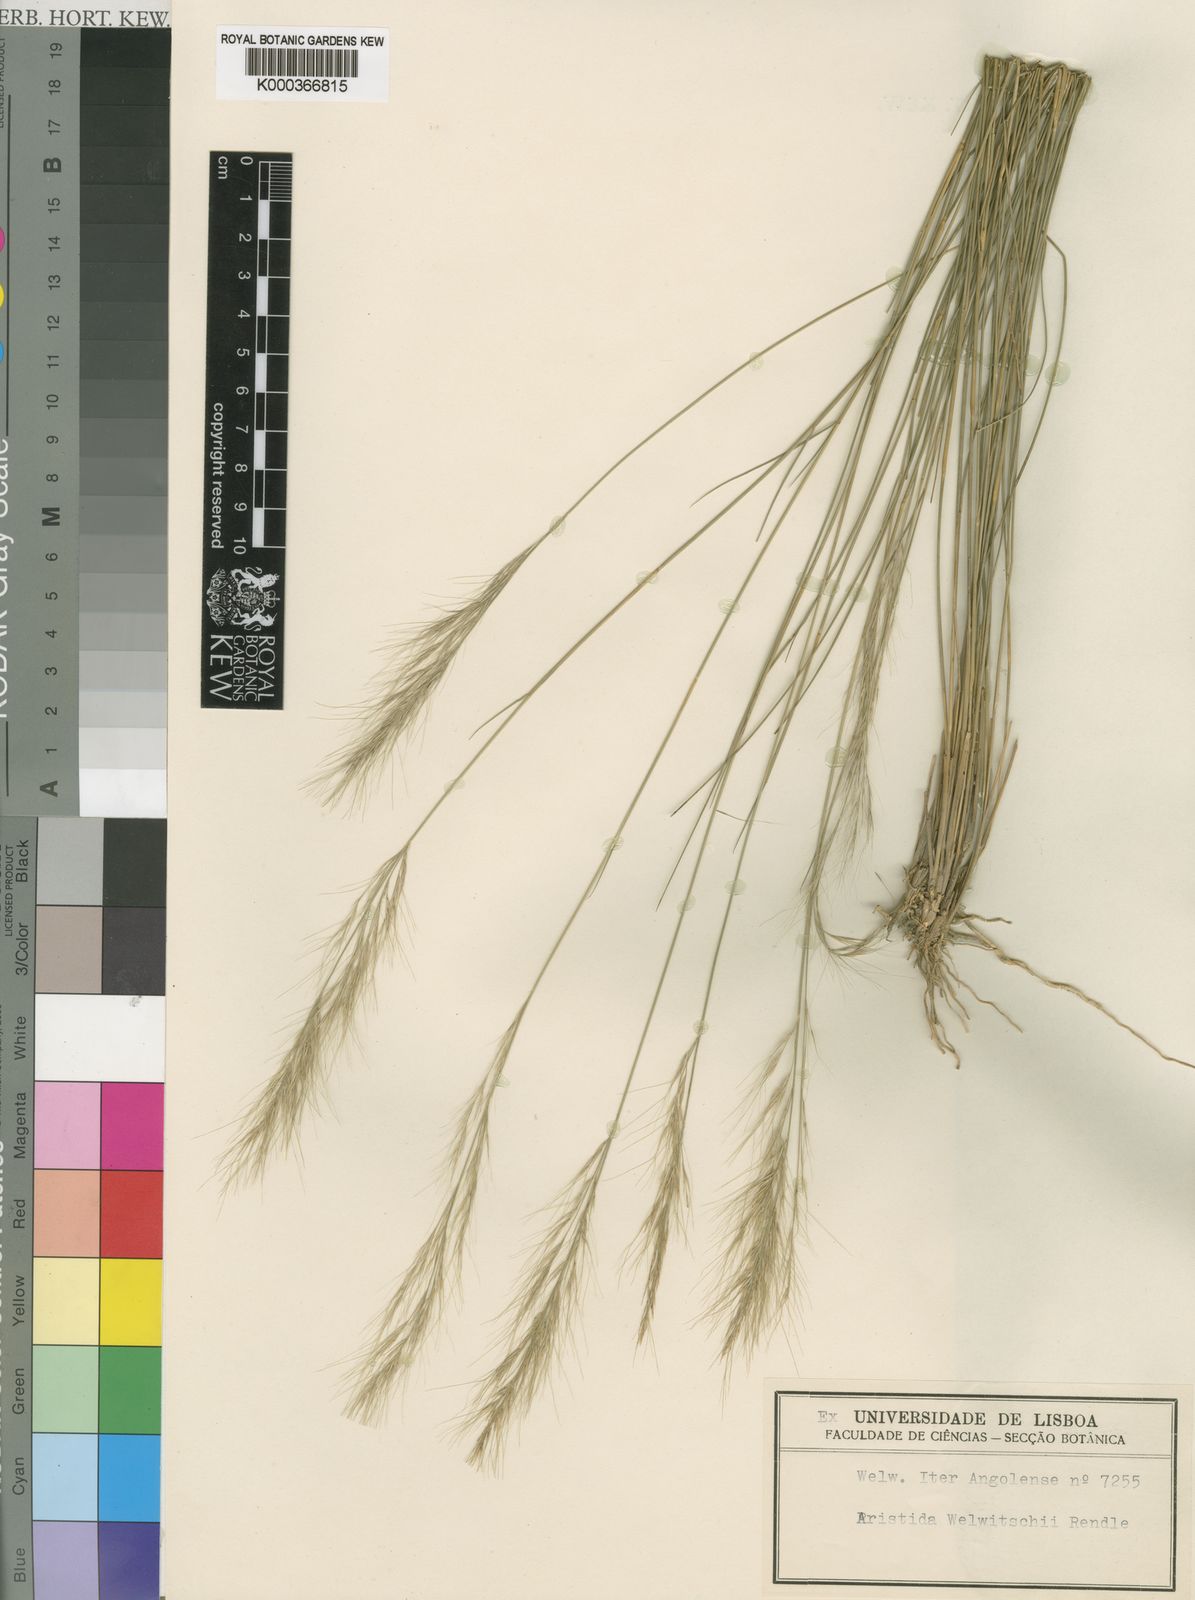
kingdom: Plantae
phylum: Tracheophyta
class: Liliopsida
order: Poales
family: Poaceae
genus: Aristida
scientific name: Aristida junciformis
